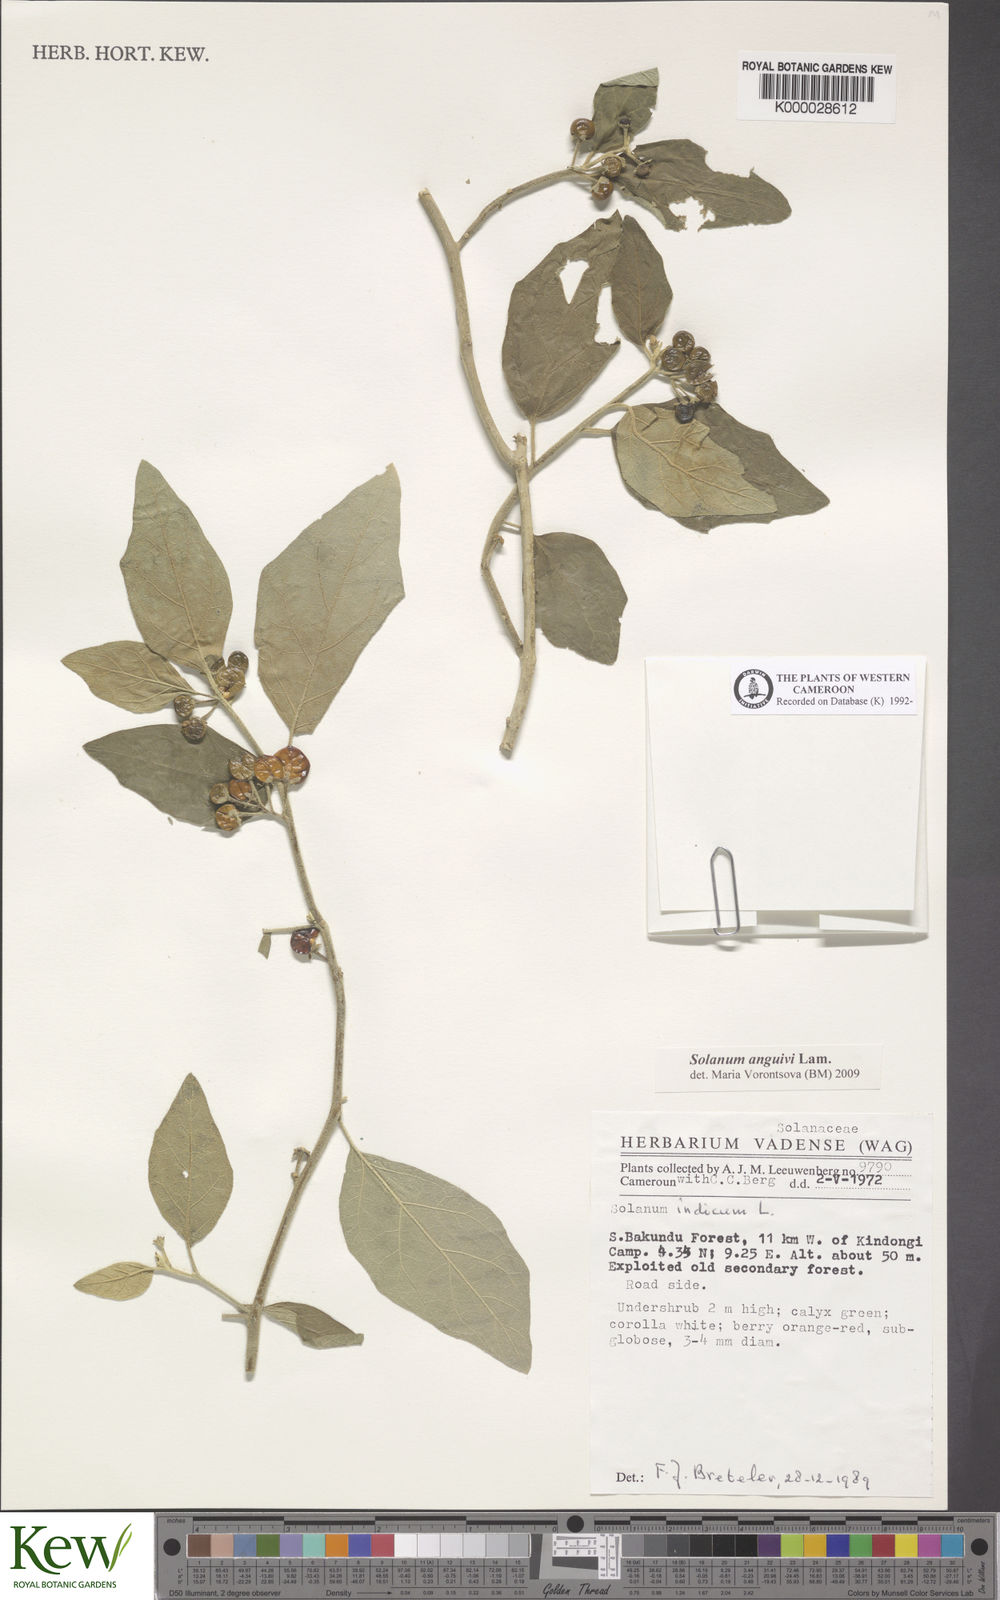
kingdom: Plantae
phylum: Tracheophyta
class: Magnoliopsida
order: Solanales
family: Solanaceae
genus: Solanum
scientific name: Solanum anguivi
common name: Forest bitterberry
